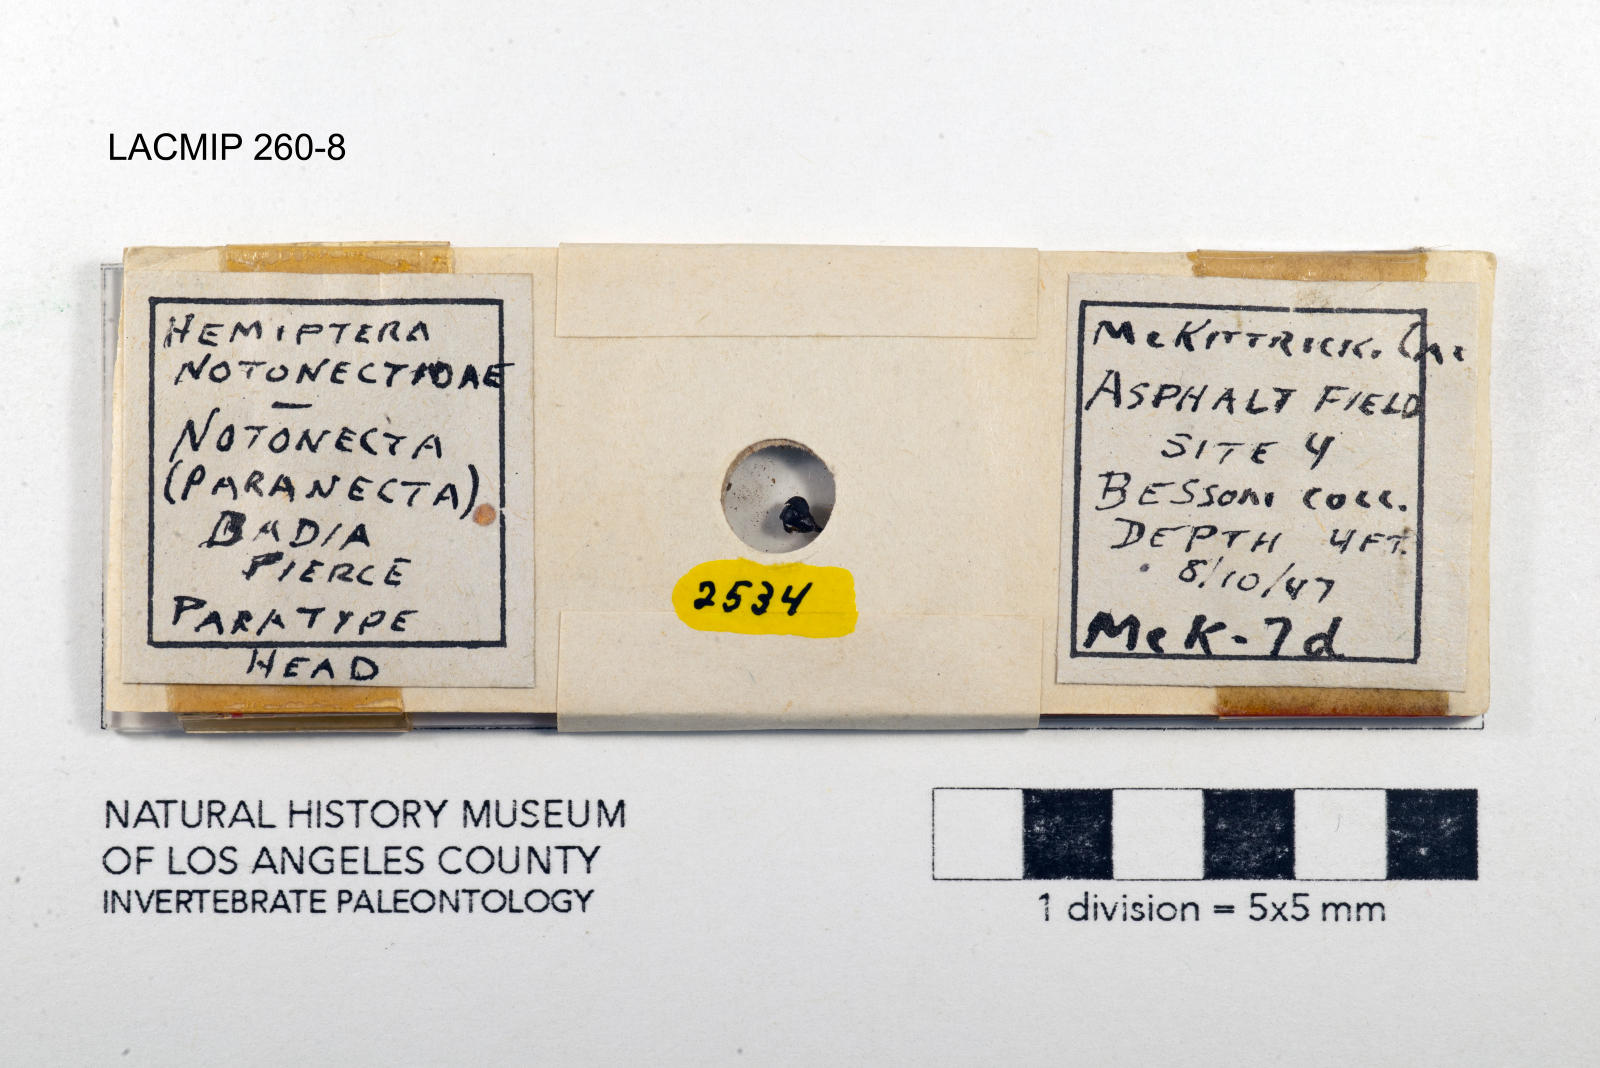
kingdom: Animalia
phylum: Arthropoda
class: Insecta
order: Hemiptera
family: Notonectidae
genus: Notonecta
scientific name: Notonecta unifasciata
